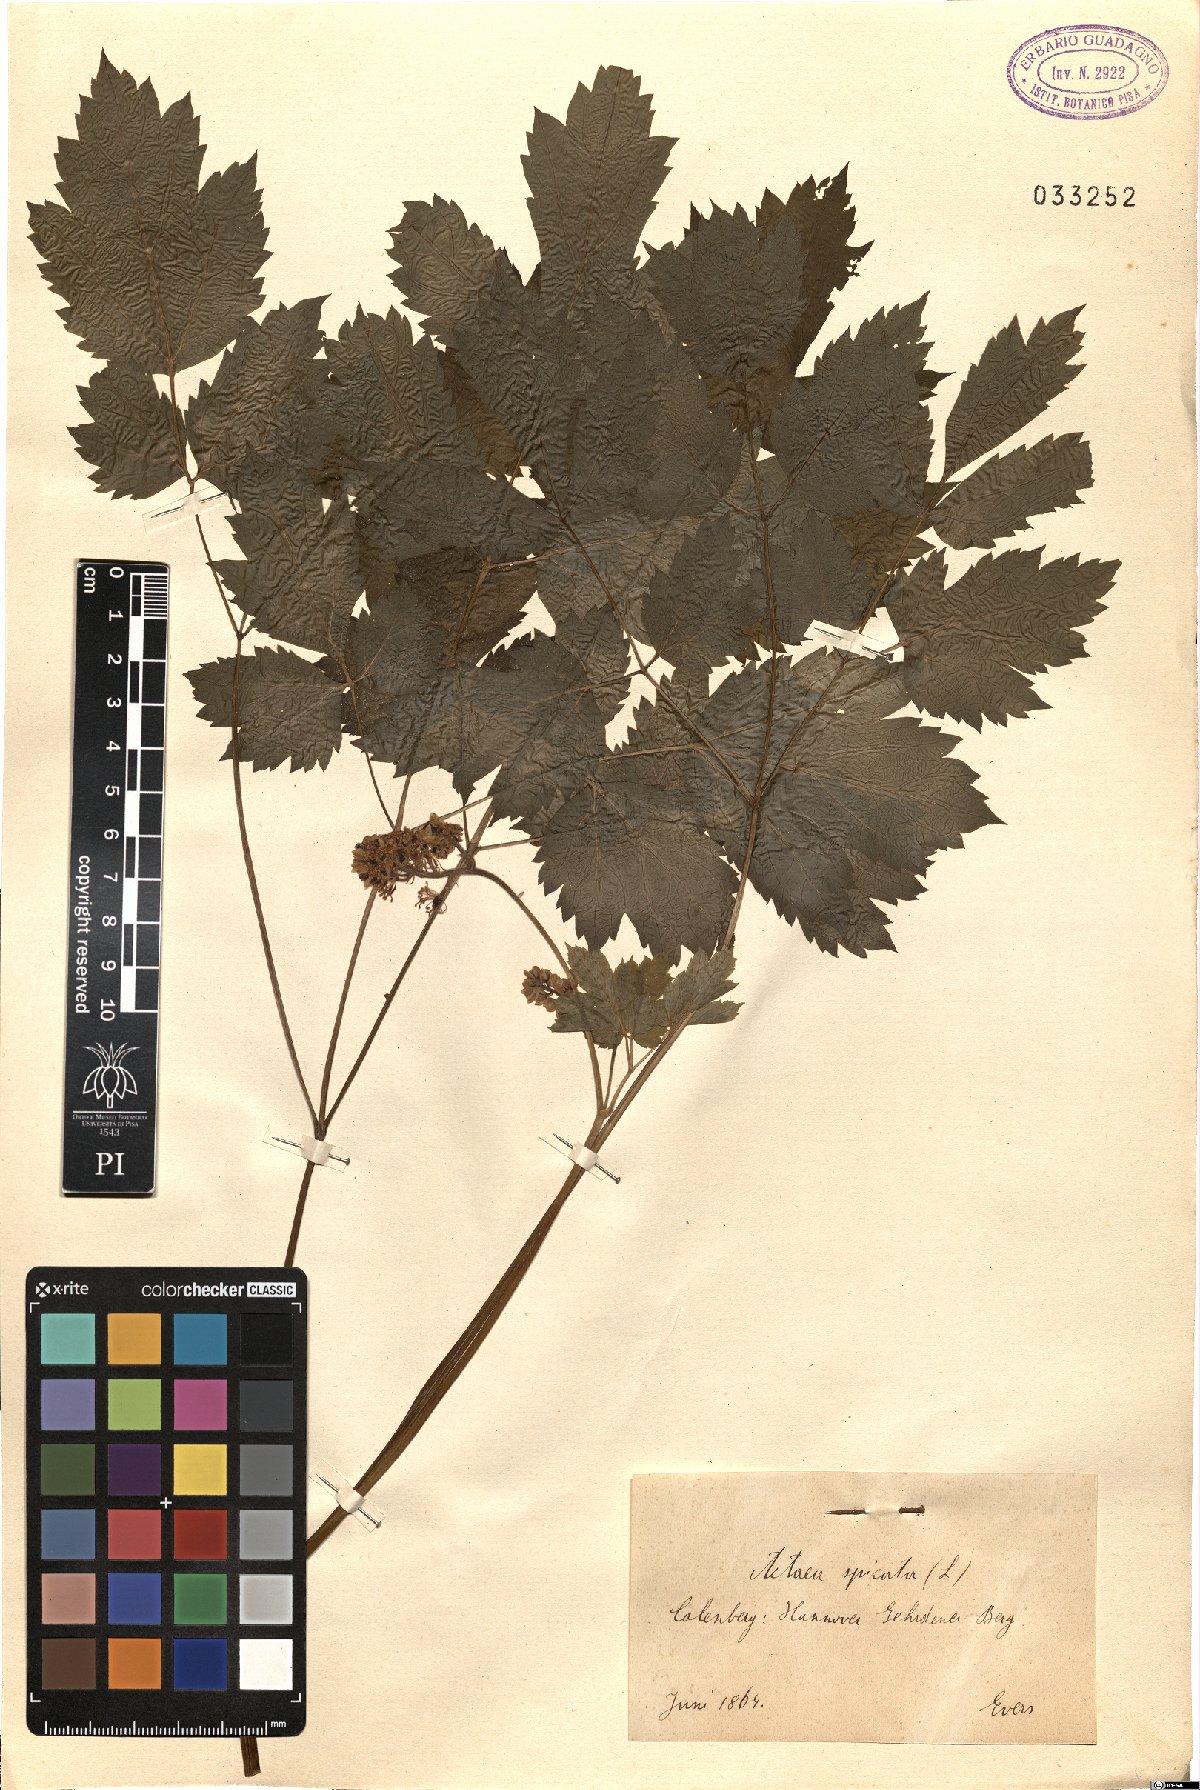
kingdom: Plantae
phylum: Tracheophyta
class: Magnoliopsida
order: Ranunculales
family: Ranunculaceae
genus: Actaea
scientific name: Actaea spicata
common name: Baneberry
